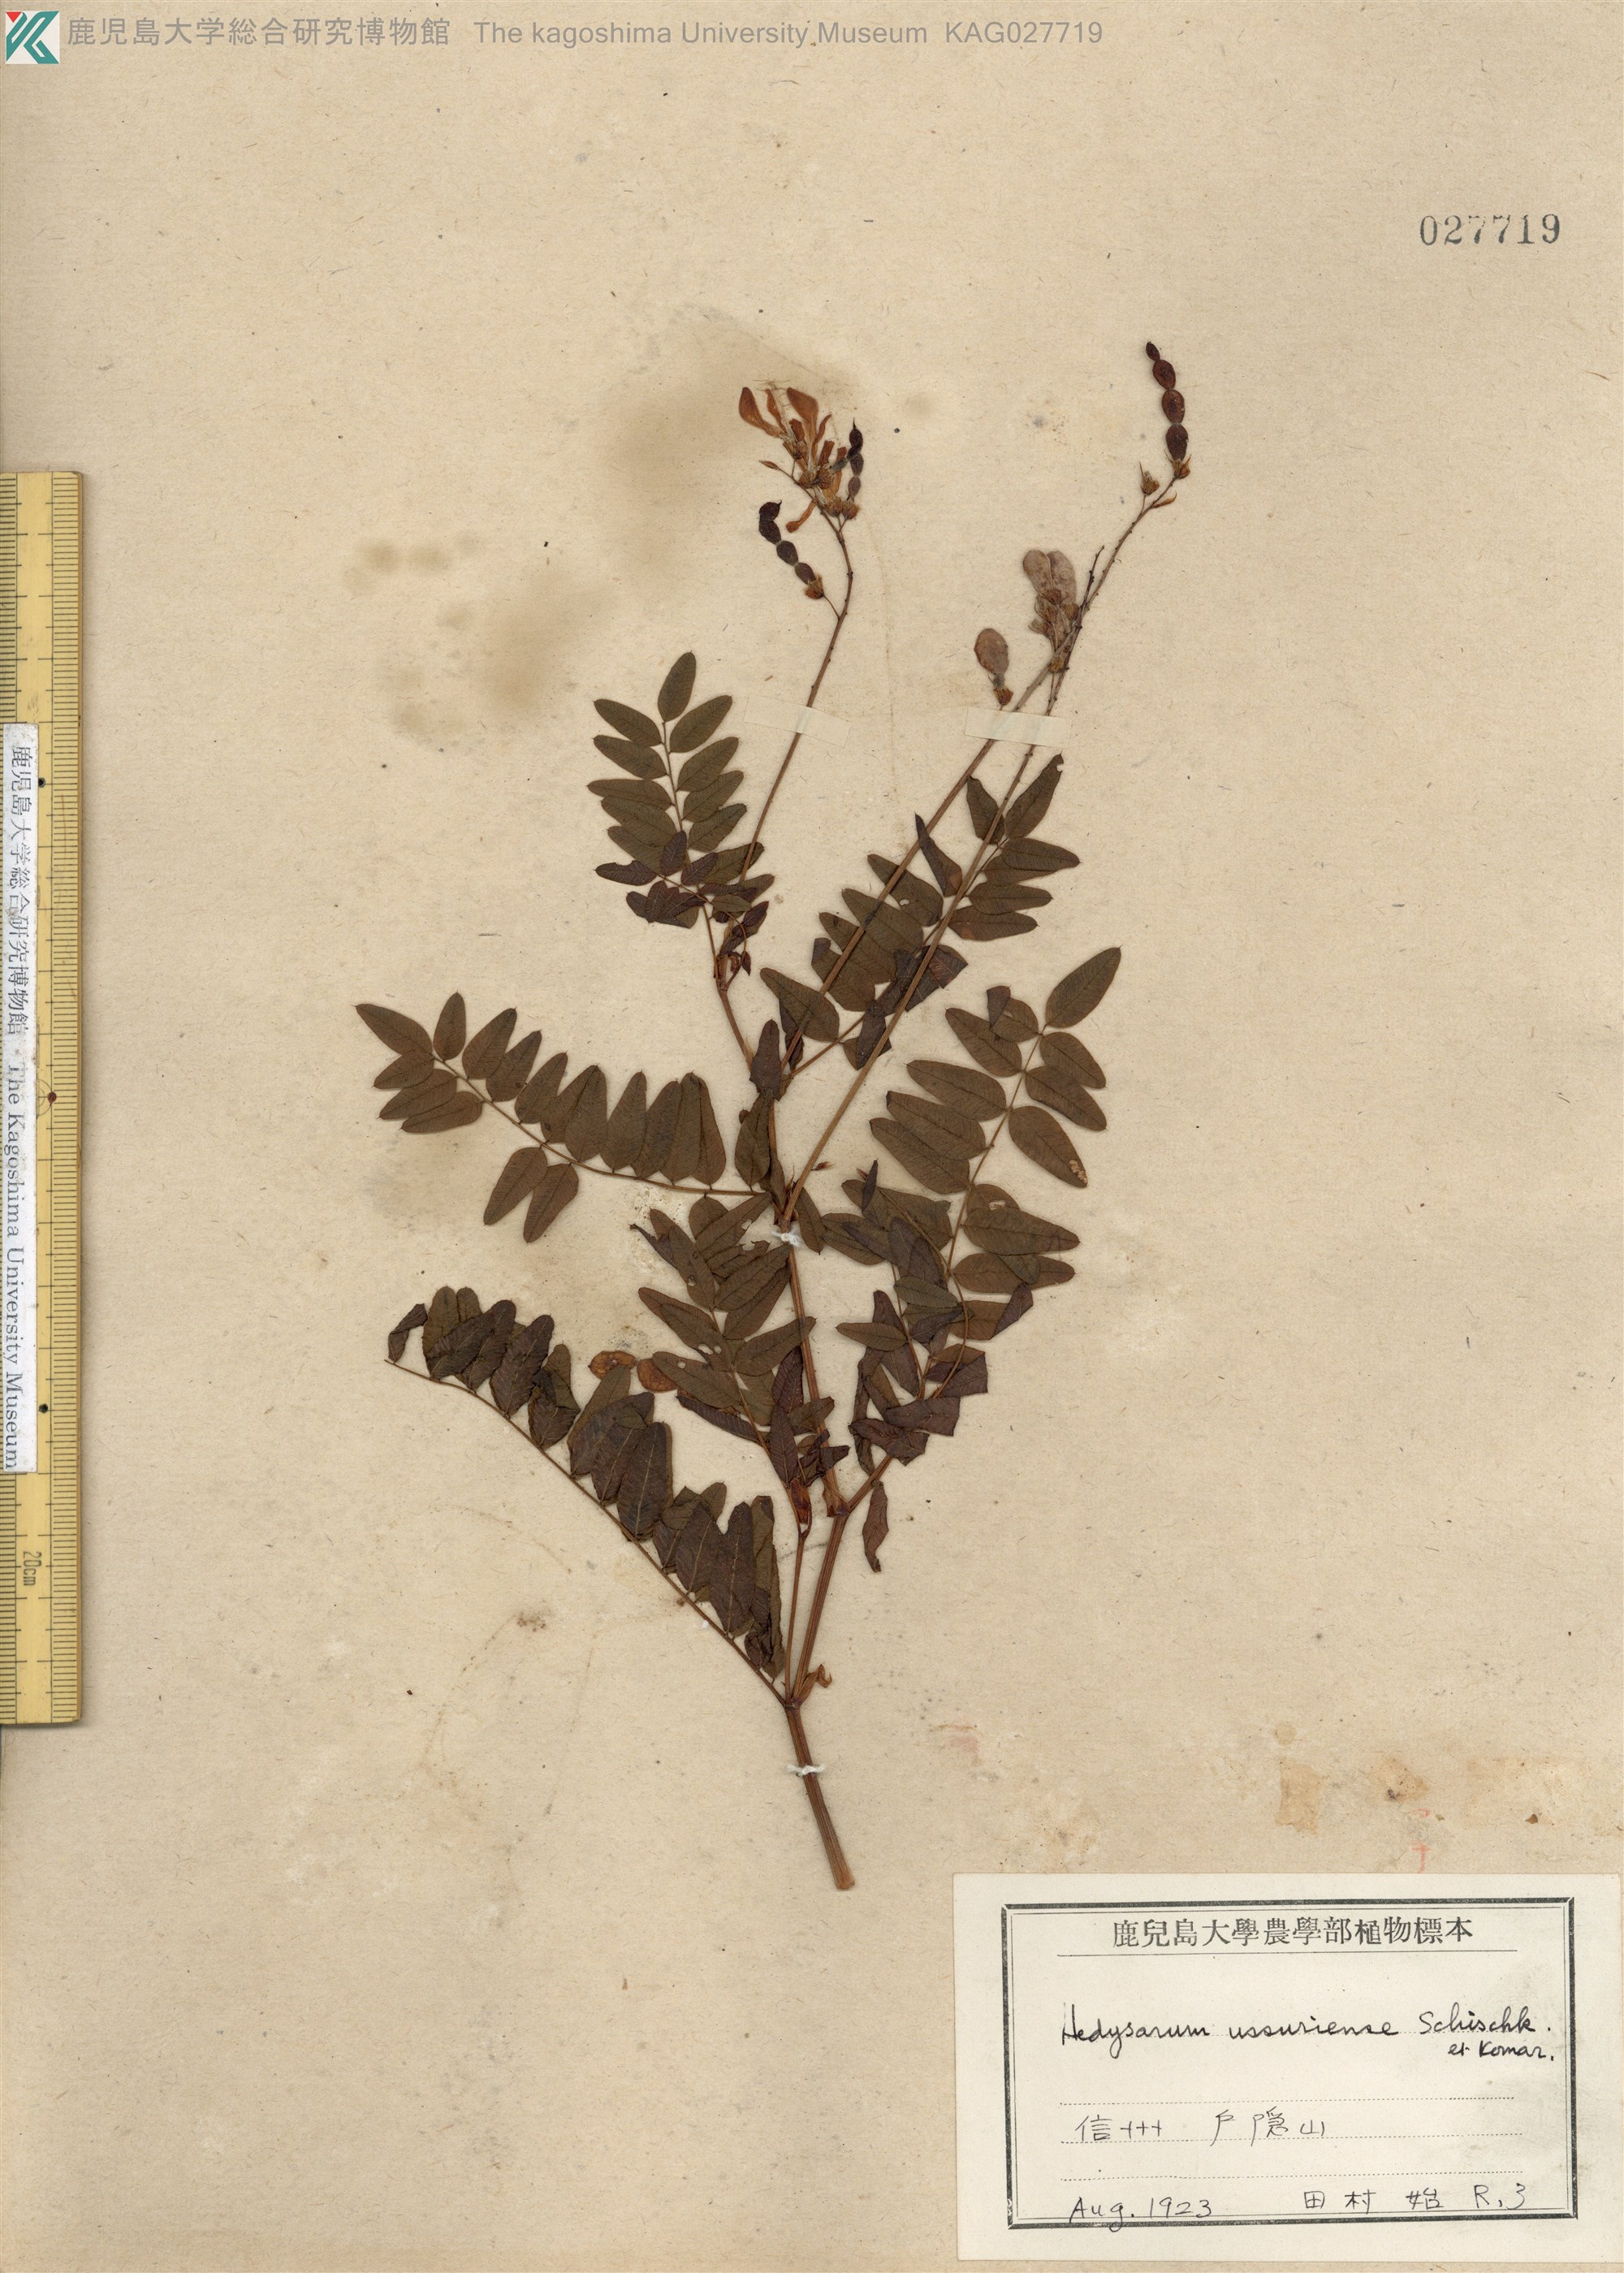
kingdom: Plantae
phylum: Tracheophyta
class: Magnoliopsida
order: Fabales
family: Fabaceae
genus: Hedysarum
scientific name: Hedysarum vicioides
